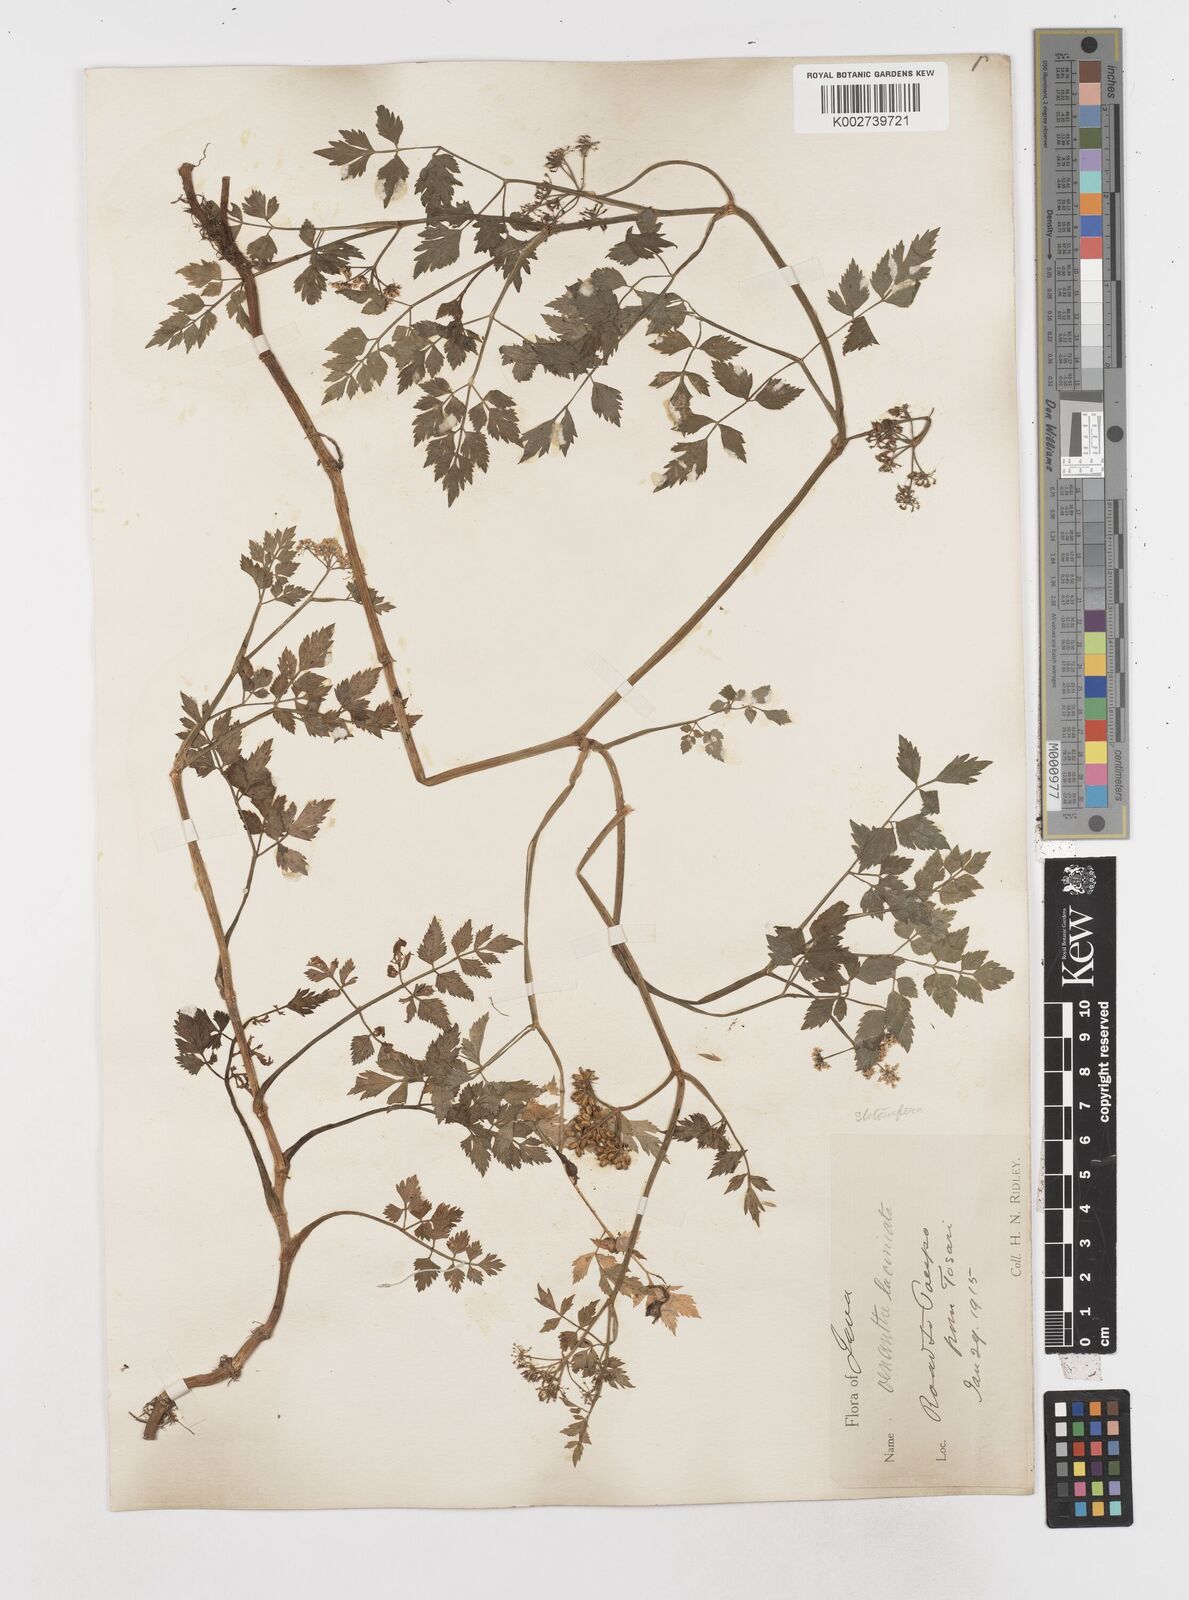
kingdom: Plantae
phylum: Tracheophyta
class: Magnoliopsida
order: Apiales
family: Apiaceae
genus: Oenanthe
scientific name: Oenanthe javanica
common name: Java water-dropwort
